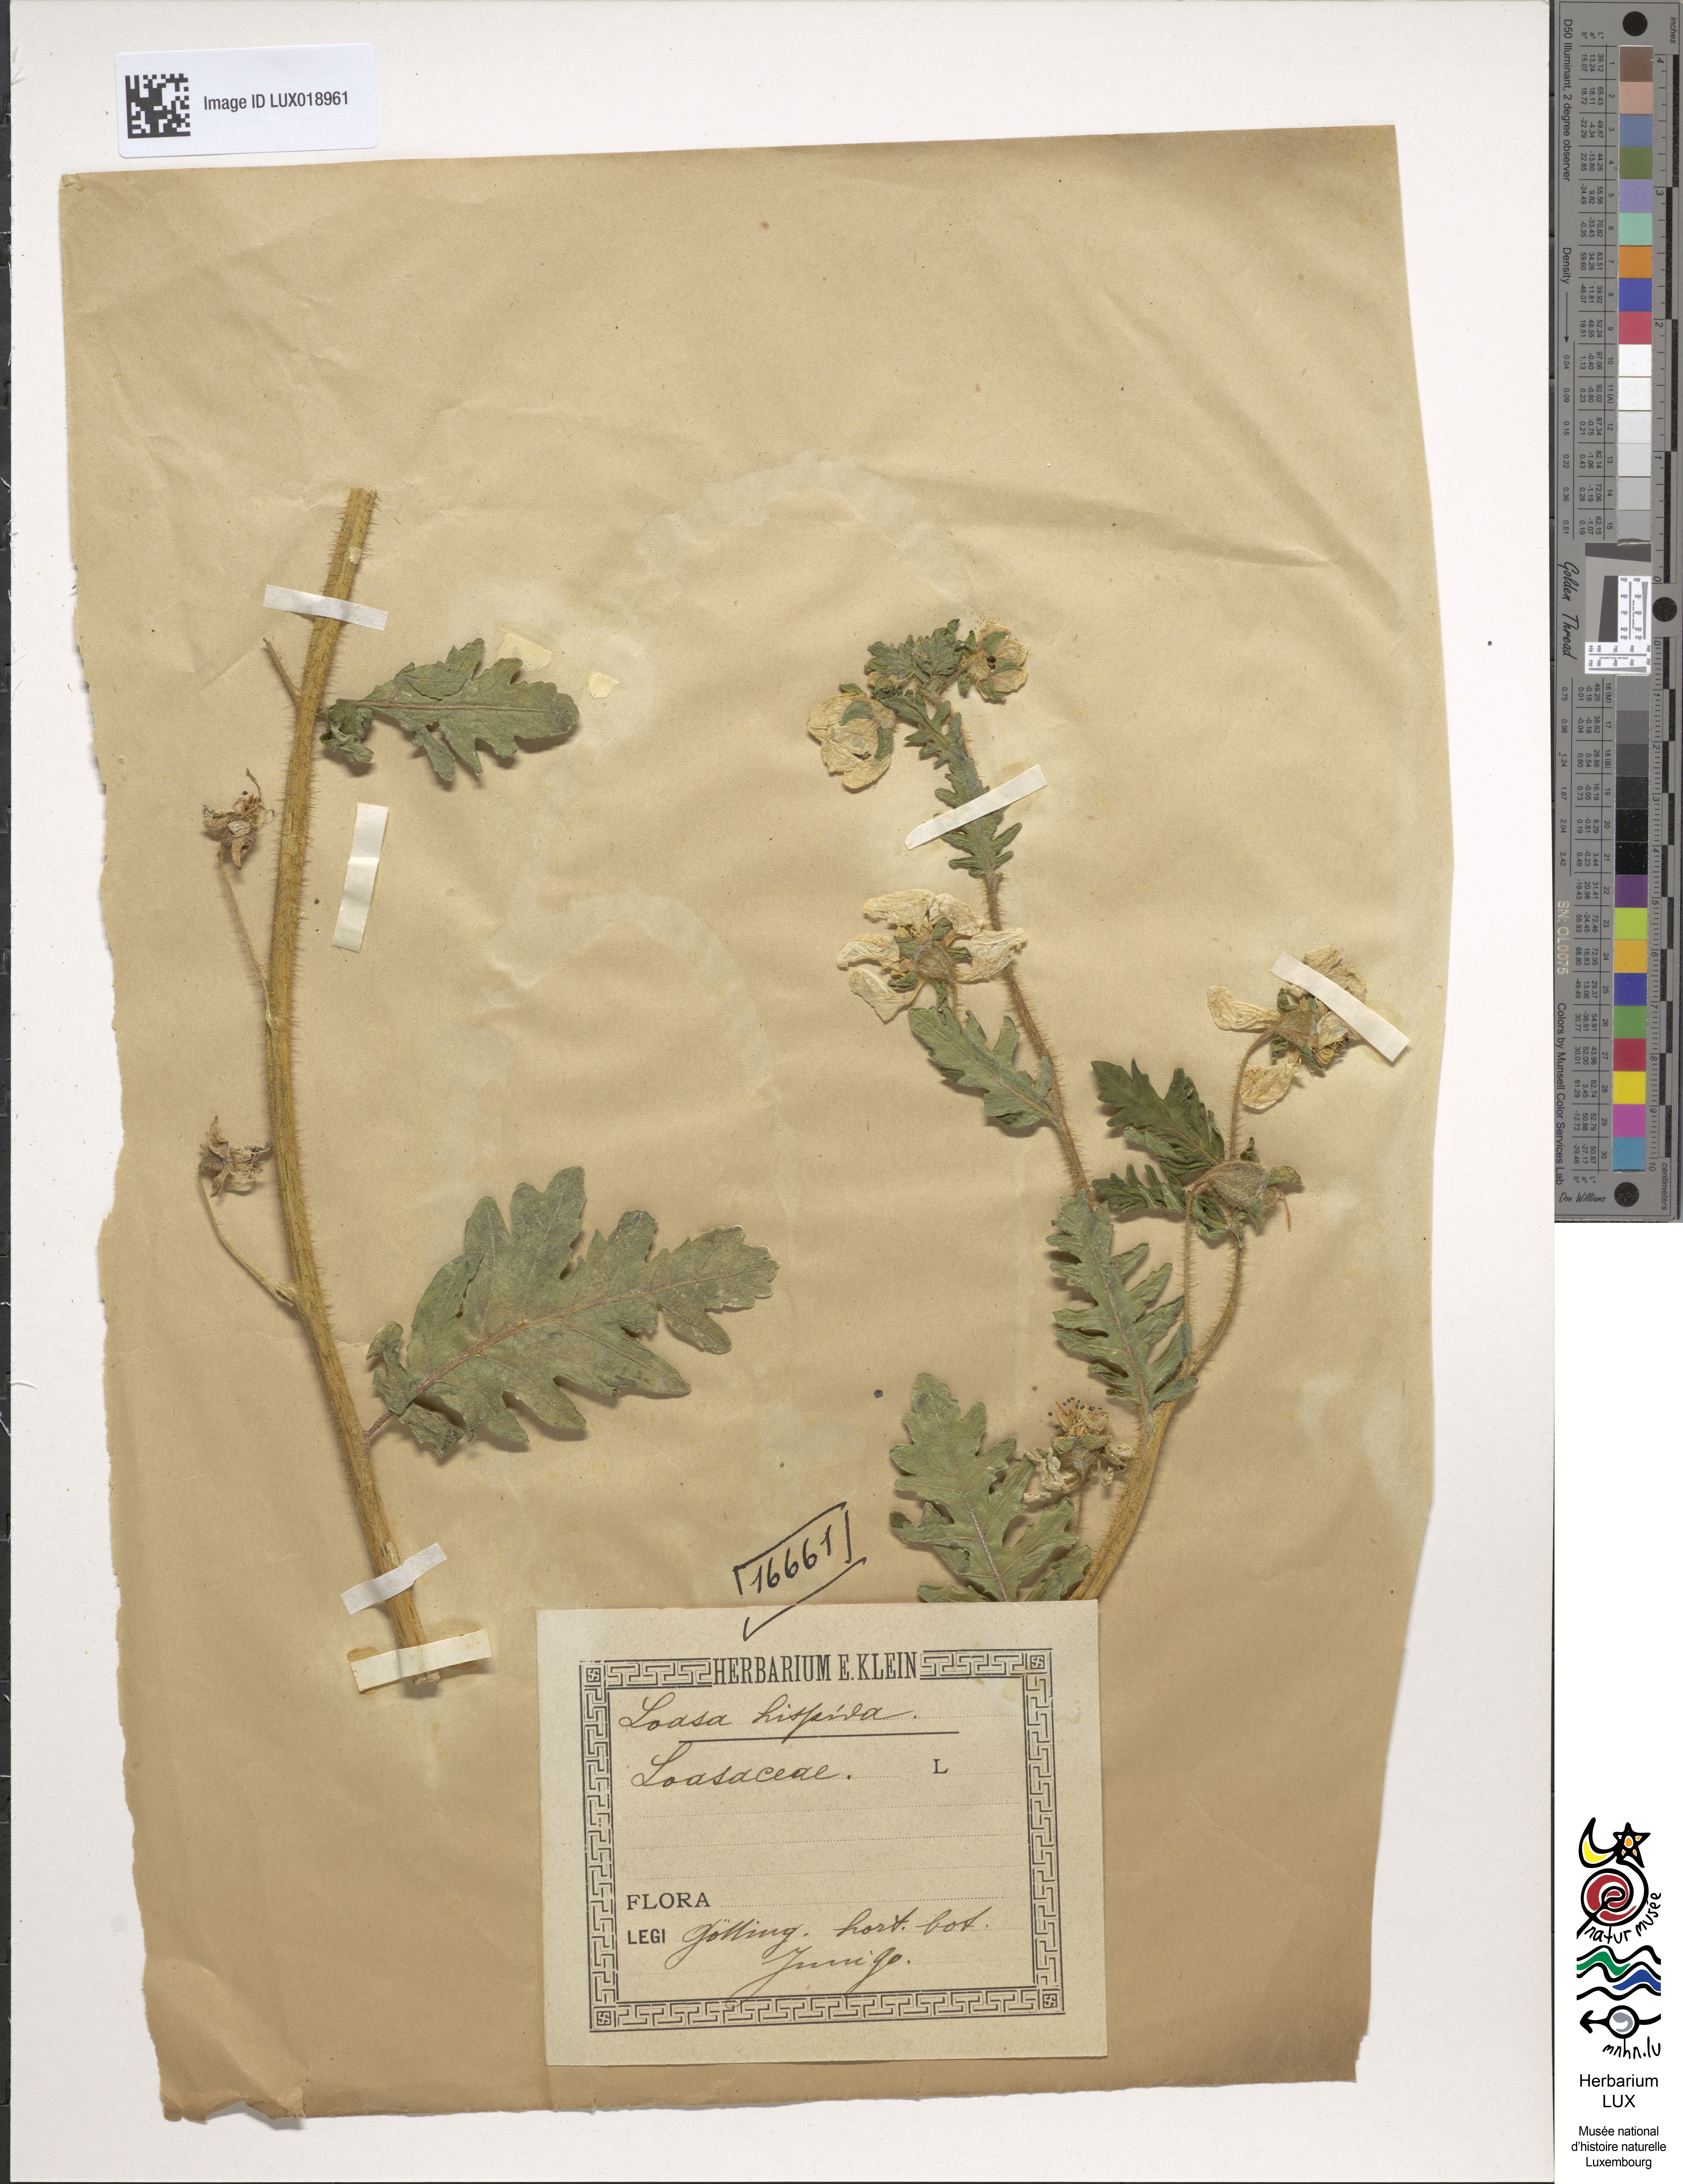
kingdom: Plantae
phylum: Tracheophyta
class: Magnoliopsida
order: Cornales
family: Loasaceae
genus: Nasa
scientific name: Nasa urens
